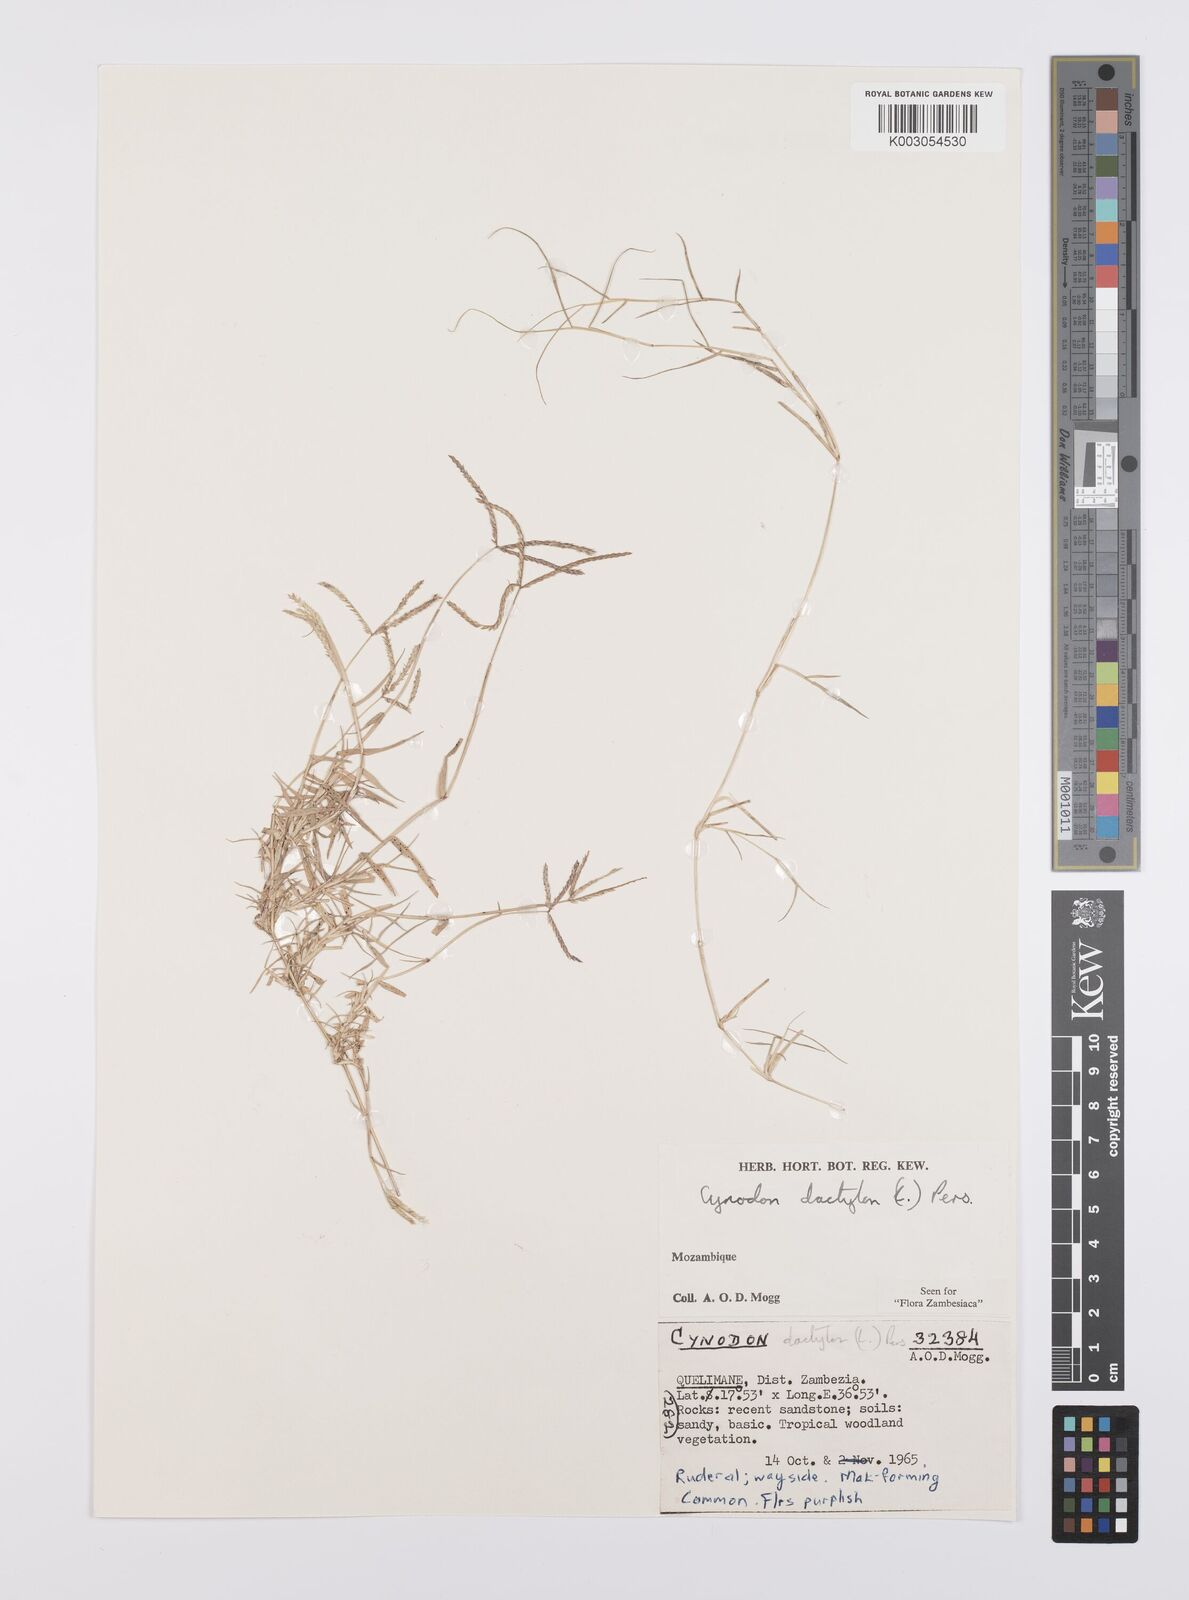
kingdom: Plantae
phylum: Tracheophyta
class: Liliopsida
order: Poales
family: Poaceae
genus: Cynodon
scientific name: Cynodon dactylon
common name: Bermuda grass
